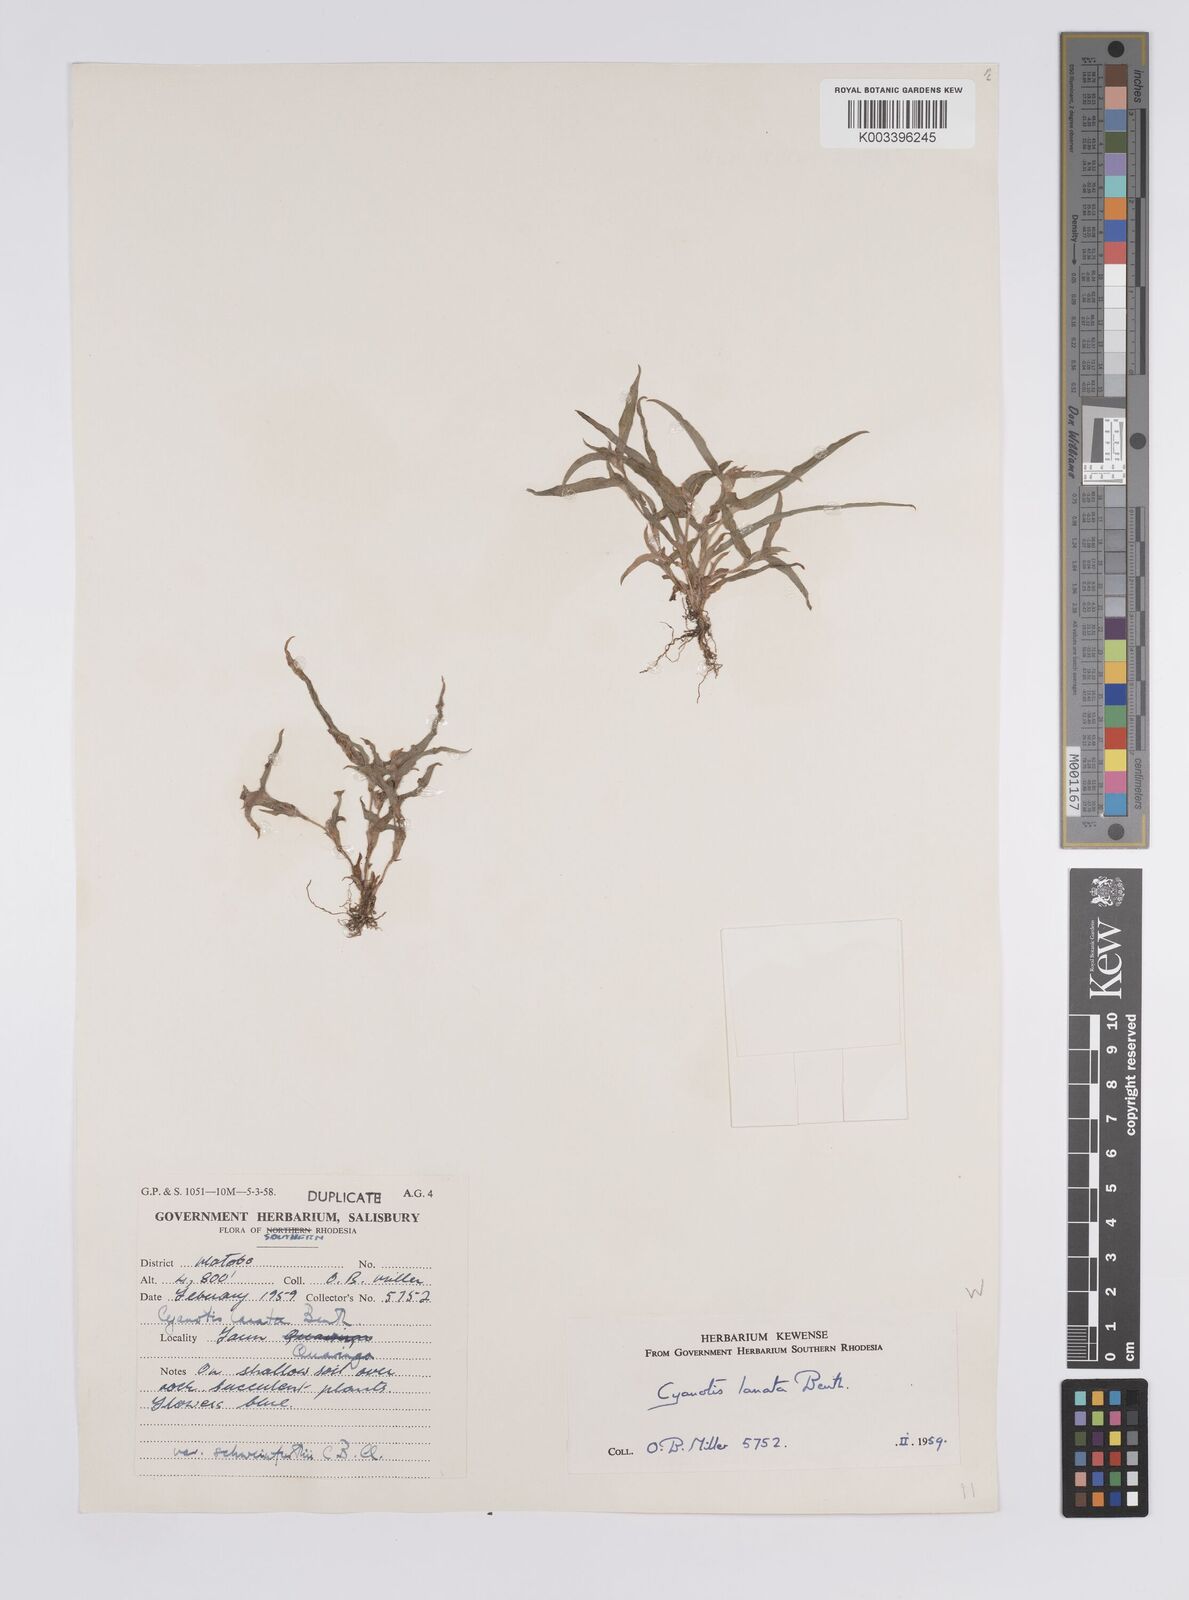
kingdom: Plantae
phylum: Tracheophyta
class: Liliopsida
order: Commelinales
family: Commelinaceae
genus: Cyanotis
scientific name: Cyanotis lanata
